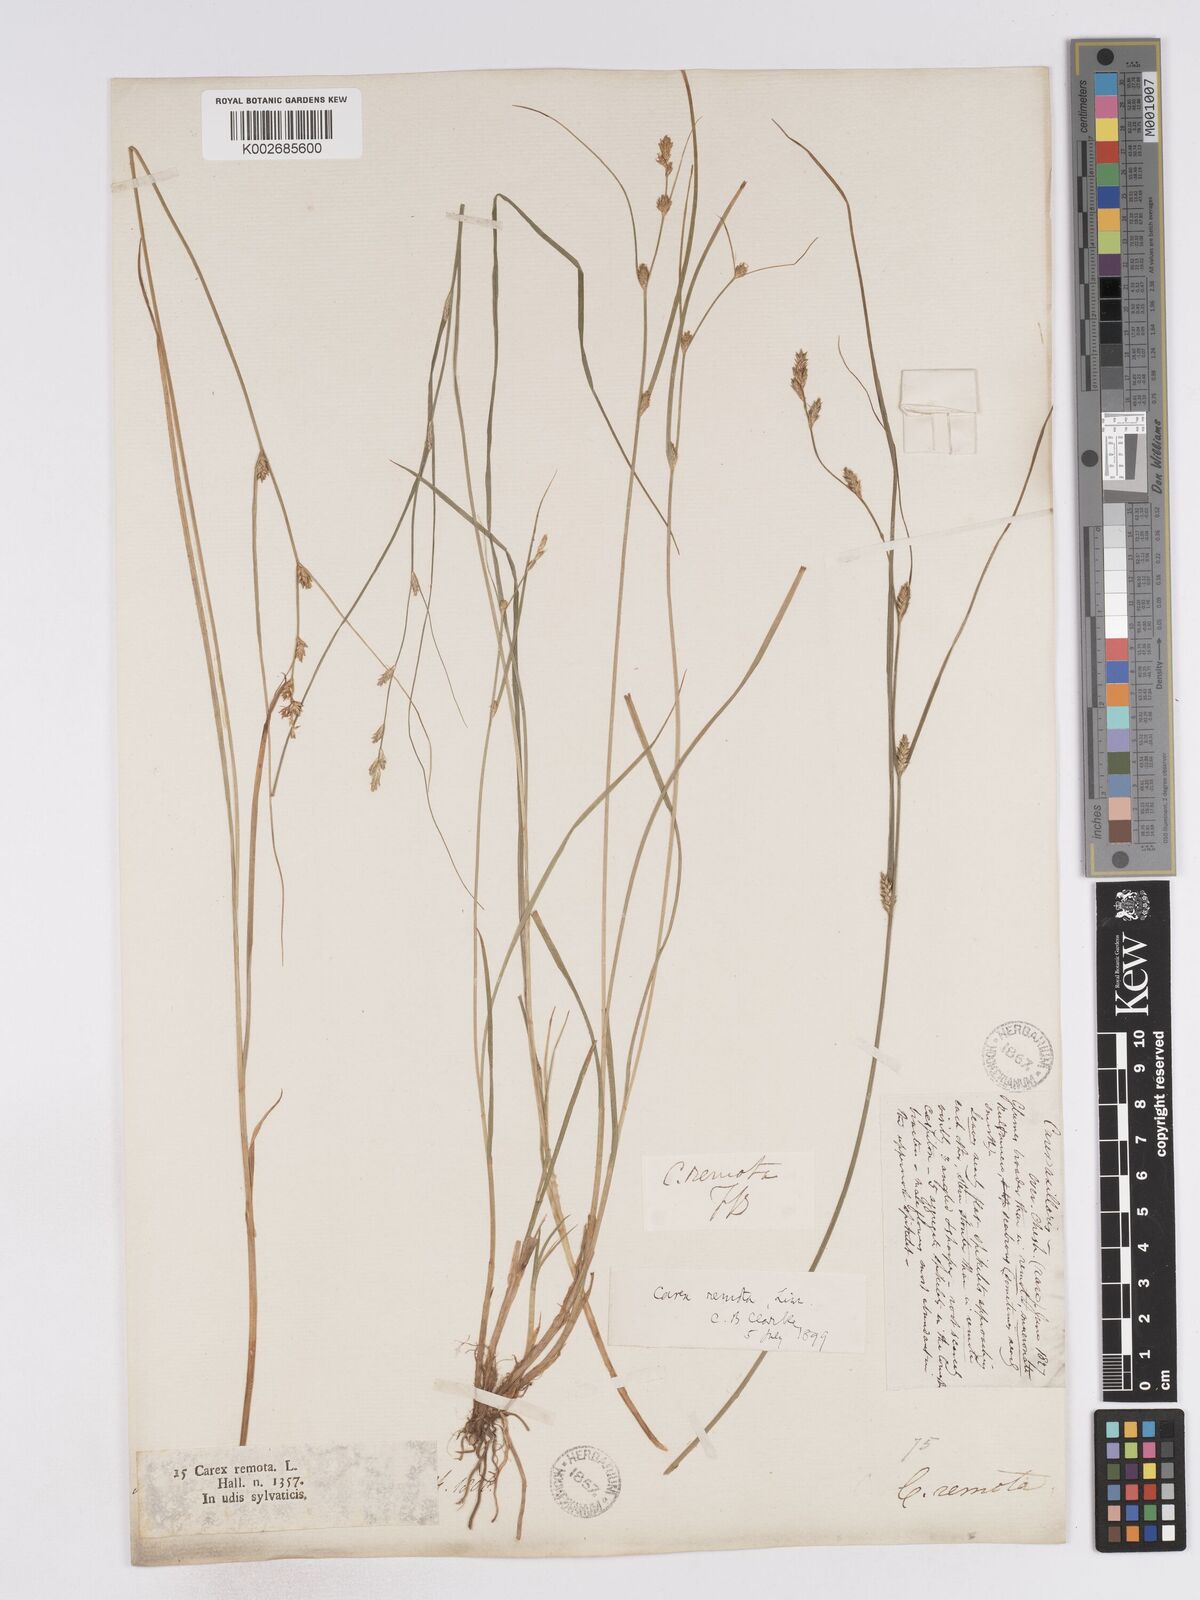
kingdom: Plantae
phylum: Tracheophyta
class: Liliopsida
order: Poales
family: Cyperaceae
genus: Carex
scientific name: Carex remota
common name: Remote sedge
